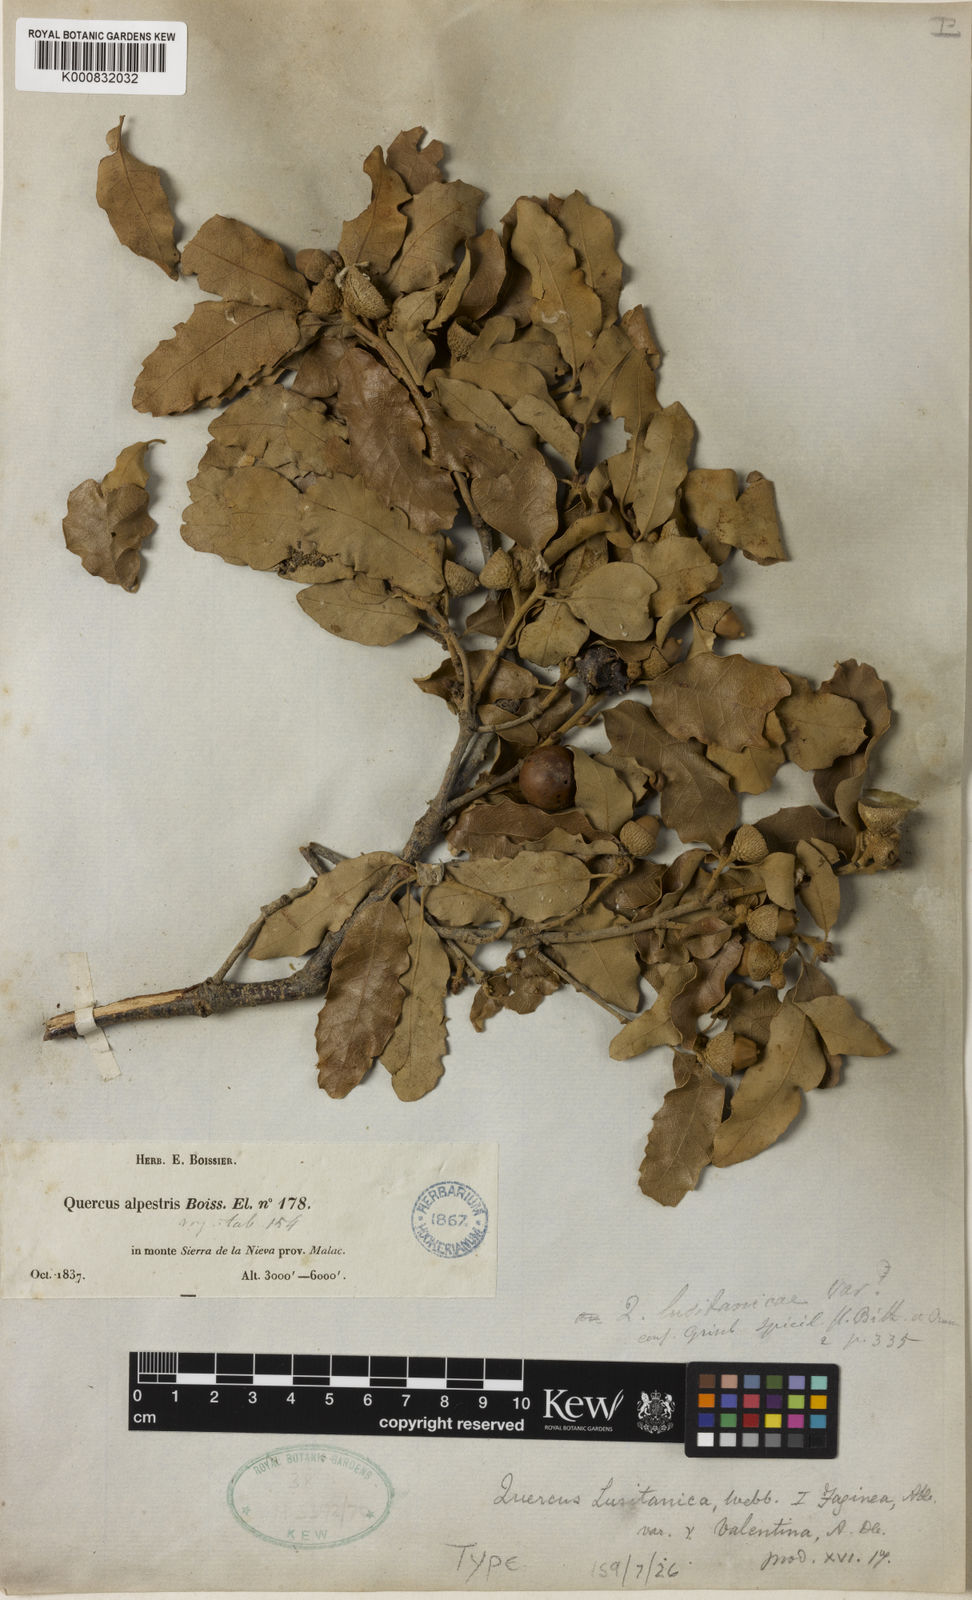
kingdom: Plantae
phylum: Tracheophyta
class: Magnoliopsida
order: Fagales
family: Fagaceae
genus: Quercus
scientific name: Quercus alpestris
